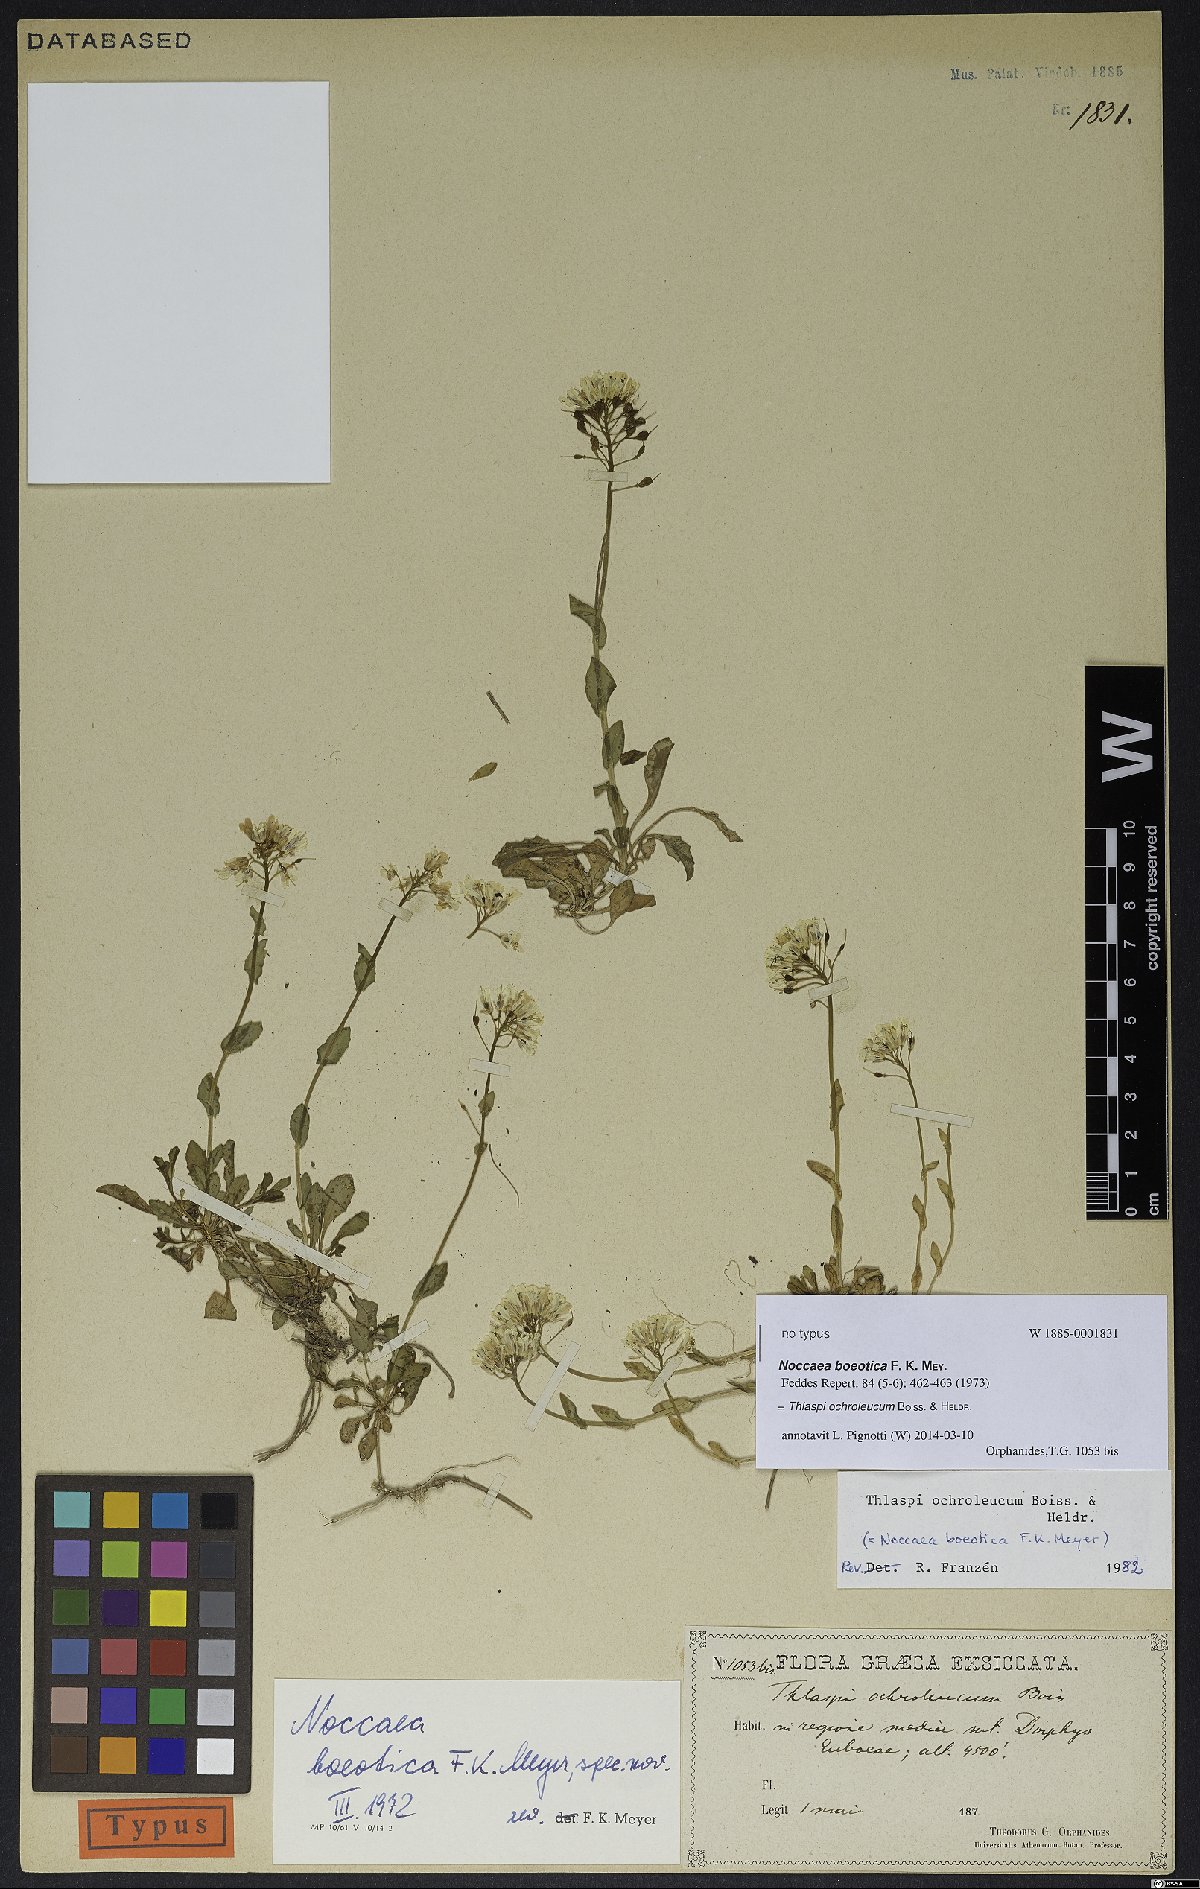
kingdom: Plantae
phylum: Tracheophyta
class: Magnoliopsida
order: Brassicales
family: Brassicaceae
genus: Noccaea
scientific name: Noccaea ochroleuca
